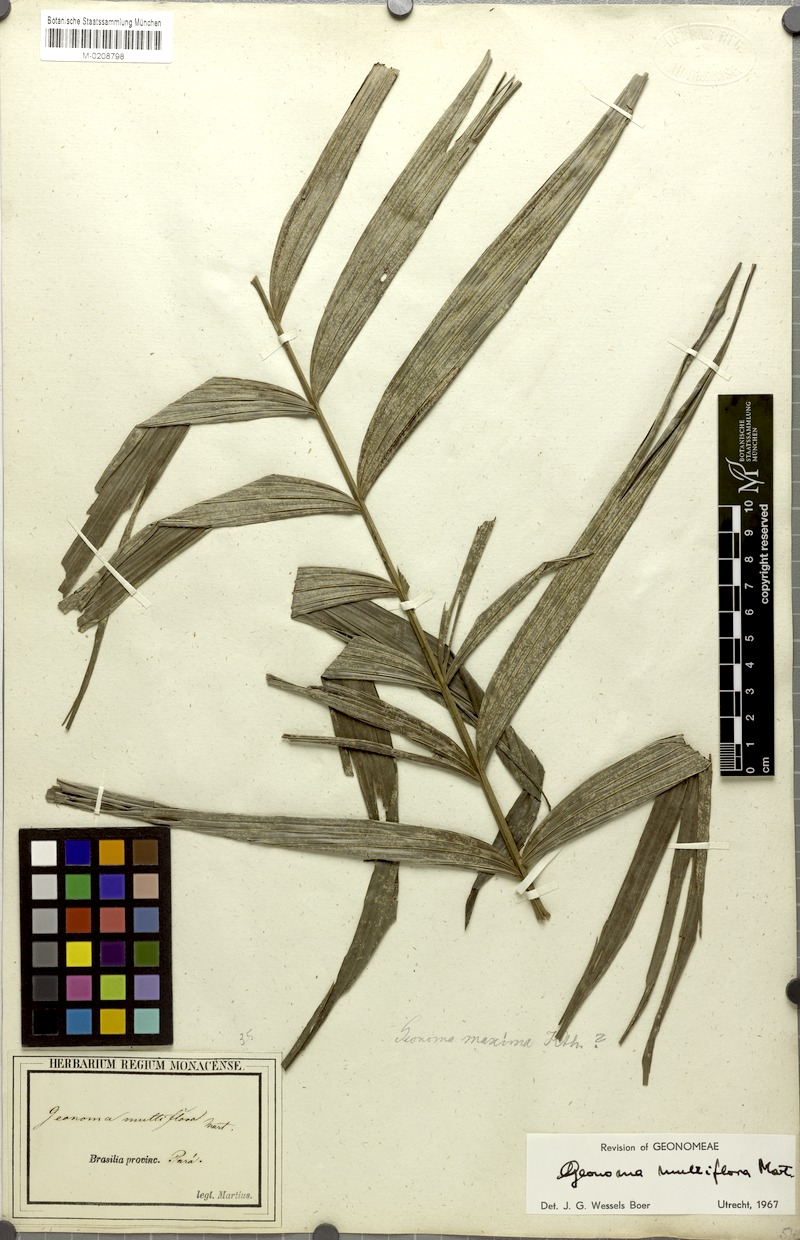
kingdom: Plantae
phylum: Tracheophyta
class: Liliopsida
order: Arecales
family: Arecaceae
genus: Geonoma
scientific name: Geonoma maxima
